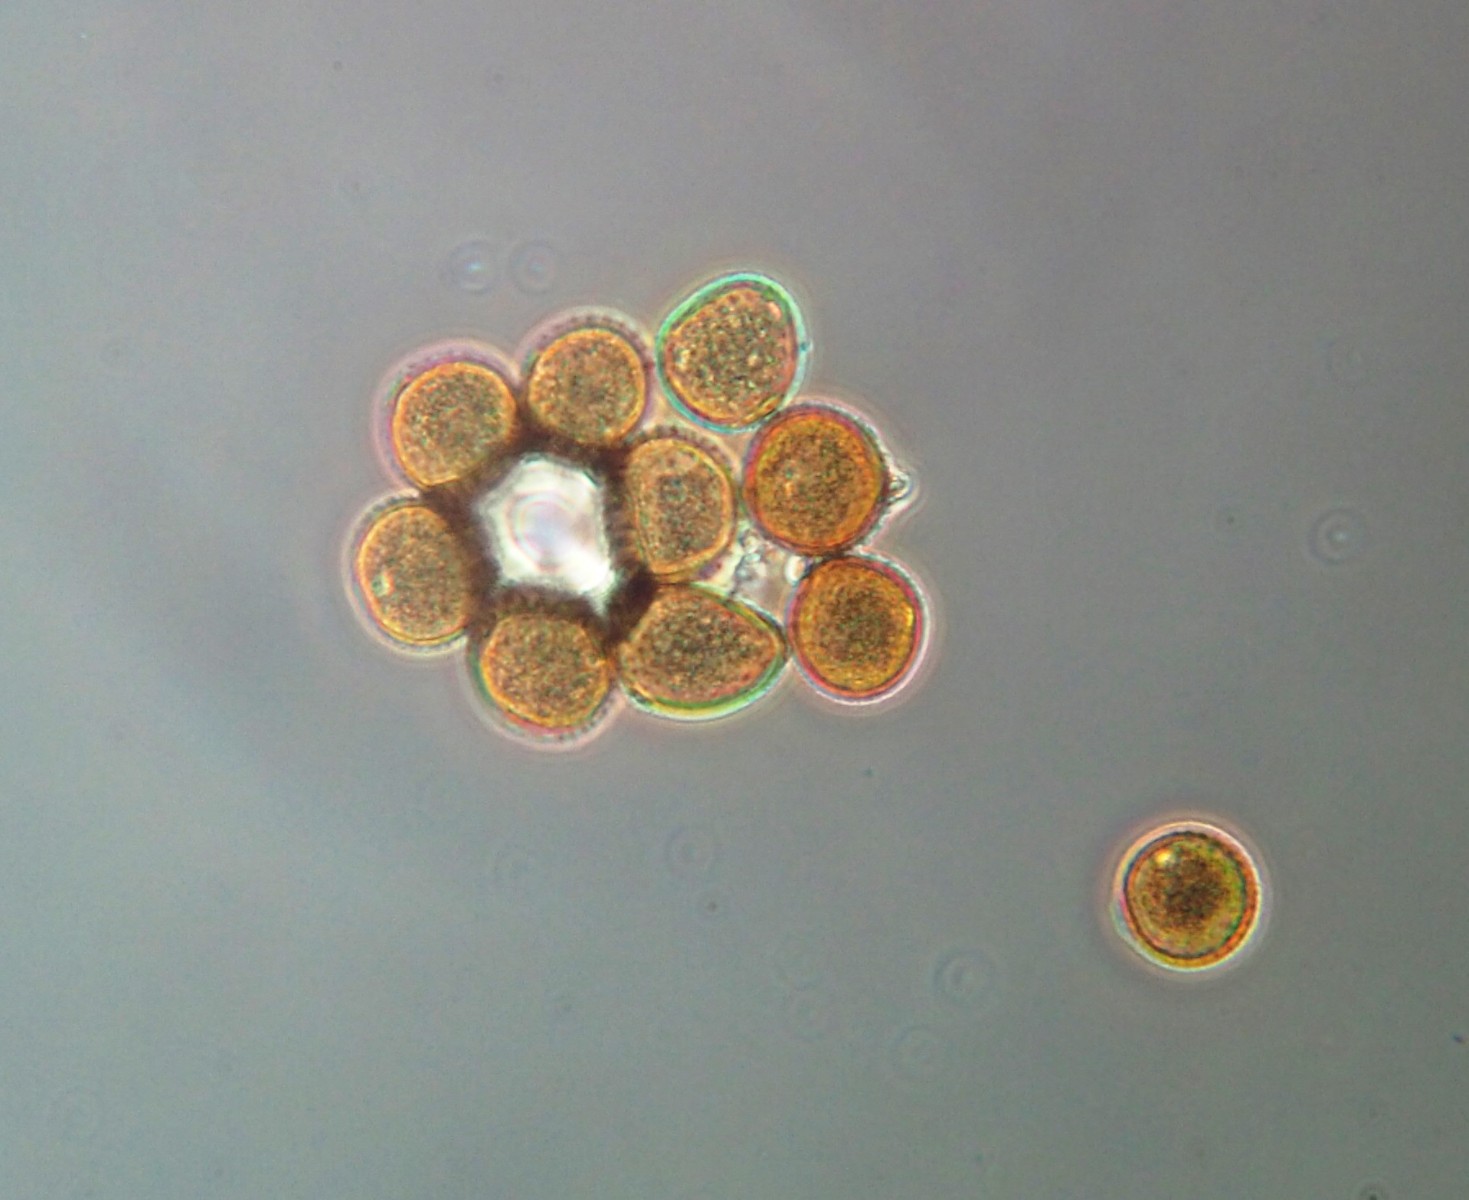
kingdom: Fungi
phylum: Basidiomycota
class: Pucciniomycetes
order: Pucciniales
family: Pucciniaceae
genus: Puccinia
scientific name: Puccinia acetosae
